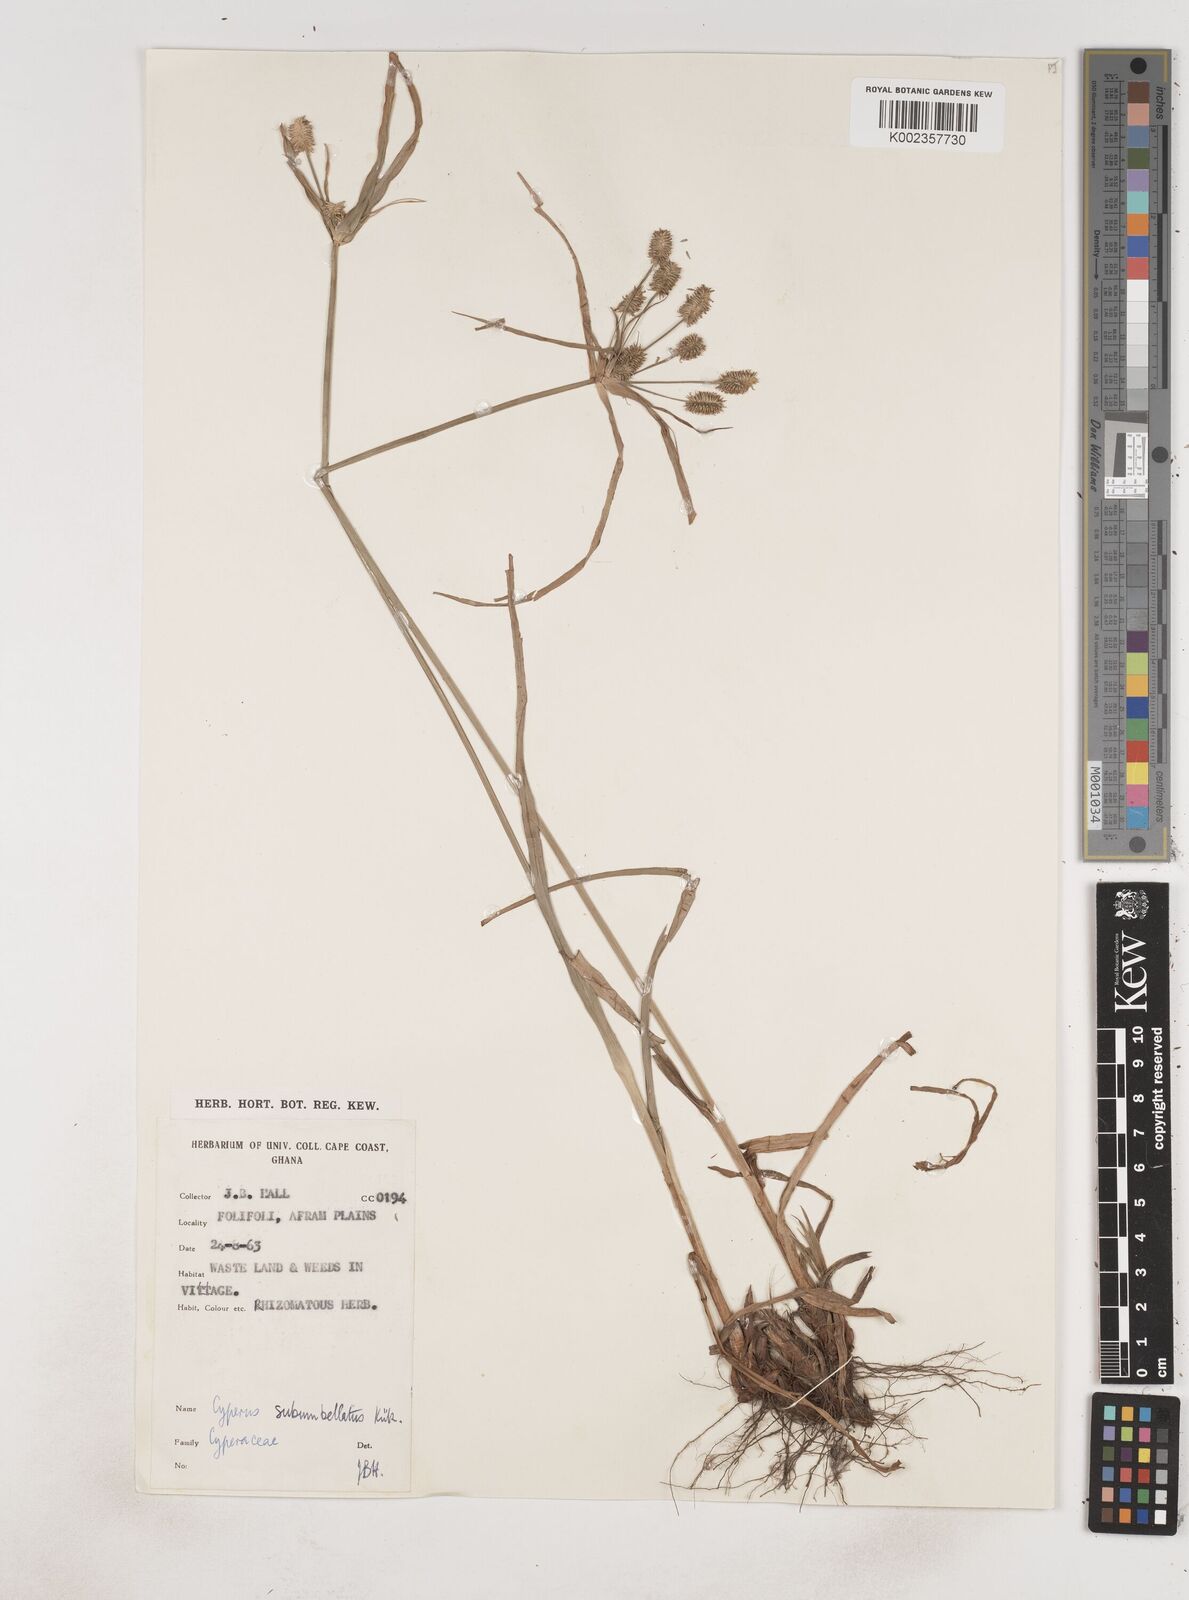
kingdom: Plantae
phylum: Tracheophyta
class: Liliopsida
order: Poales
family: Cyperaceae
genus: Cyperus
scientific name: Cyperus sublimis
